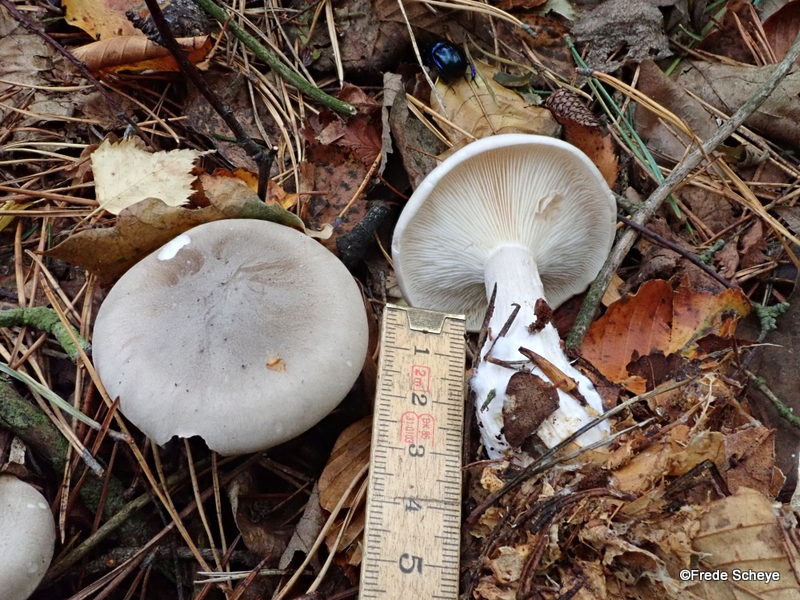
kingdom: Fungi
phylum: Basidiomycota
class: Agaricomycetes
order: Agaricales
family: Tricholomataceae
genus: Clitocybe
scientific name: Clitocybe nebularis
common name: tåge-tragthat
